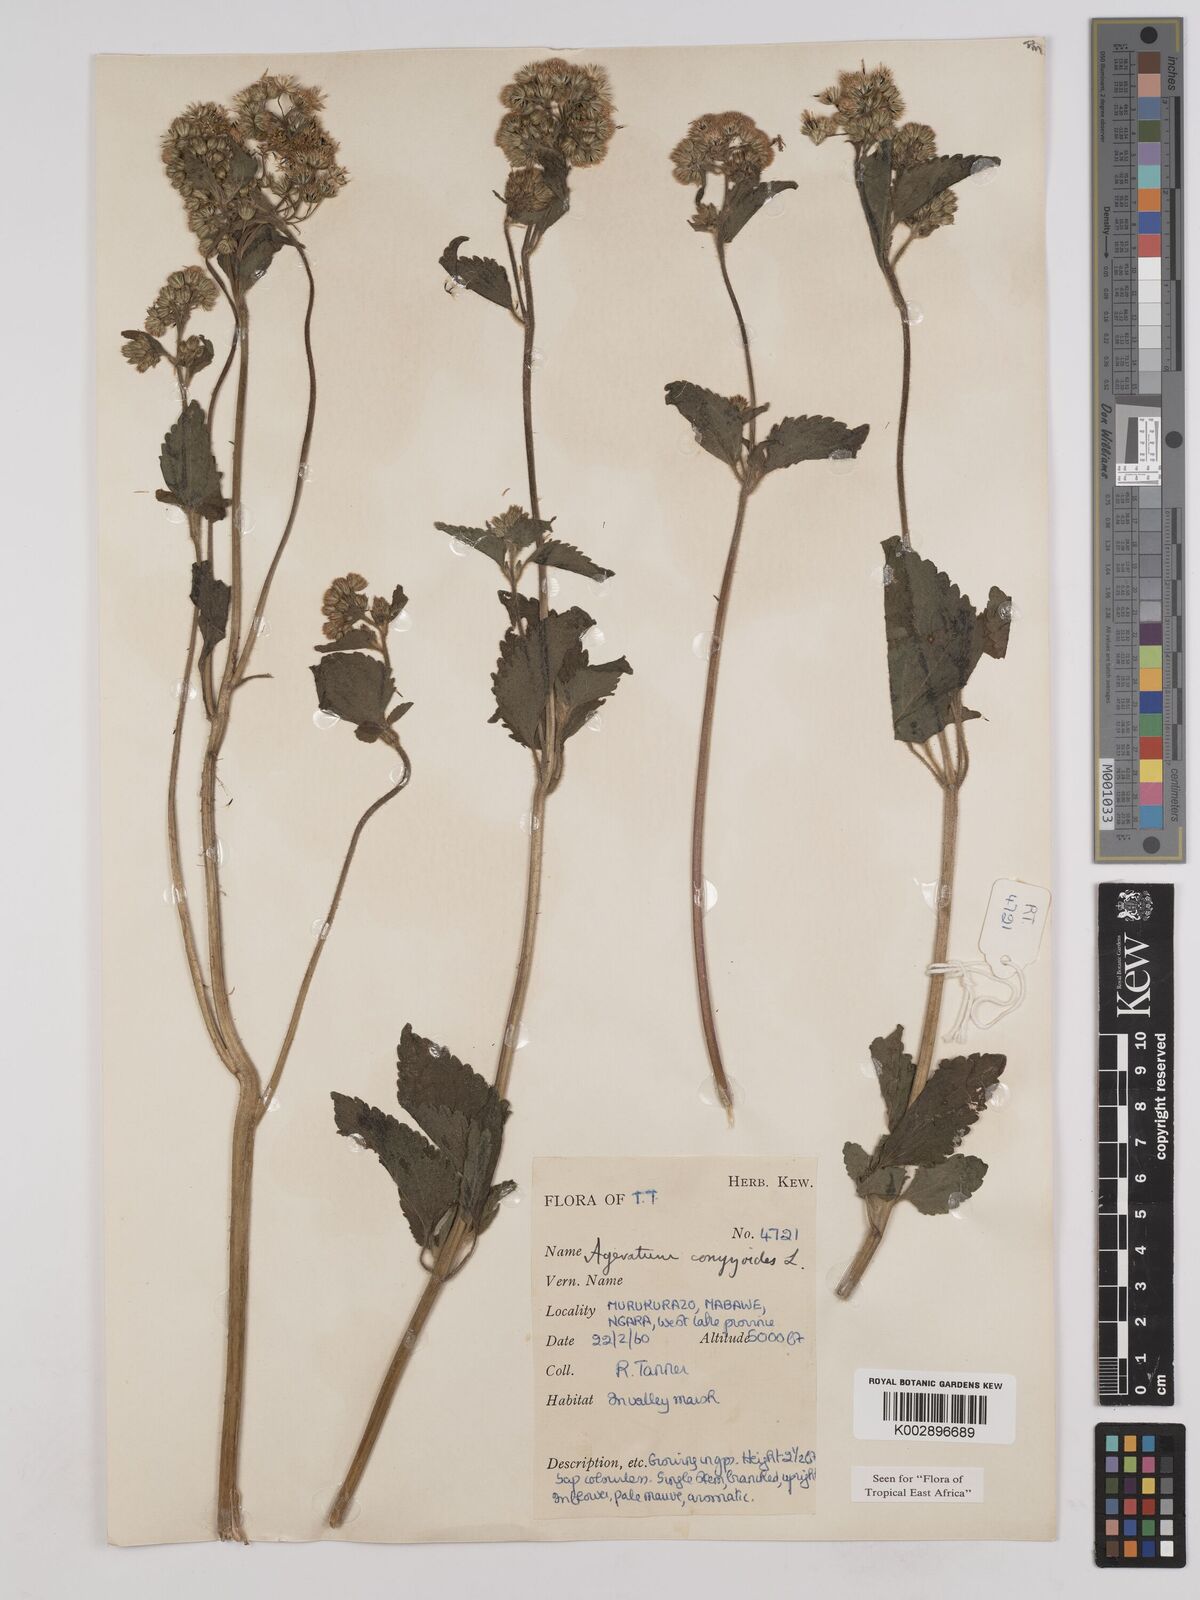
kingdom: Plantae
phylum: Tracheophyta
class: Magnoliopsida
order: Asterales
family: Asteraceae
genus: Ageratum
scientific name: Ageratum conyzoides
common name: Tropical whiteweed
